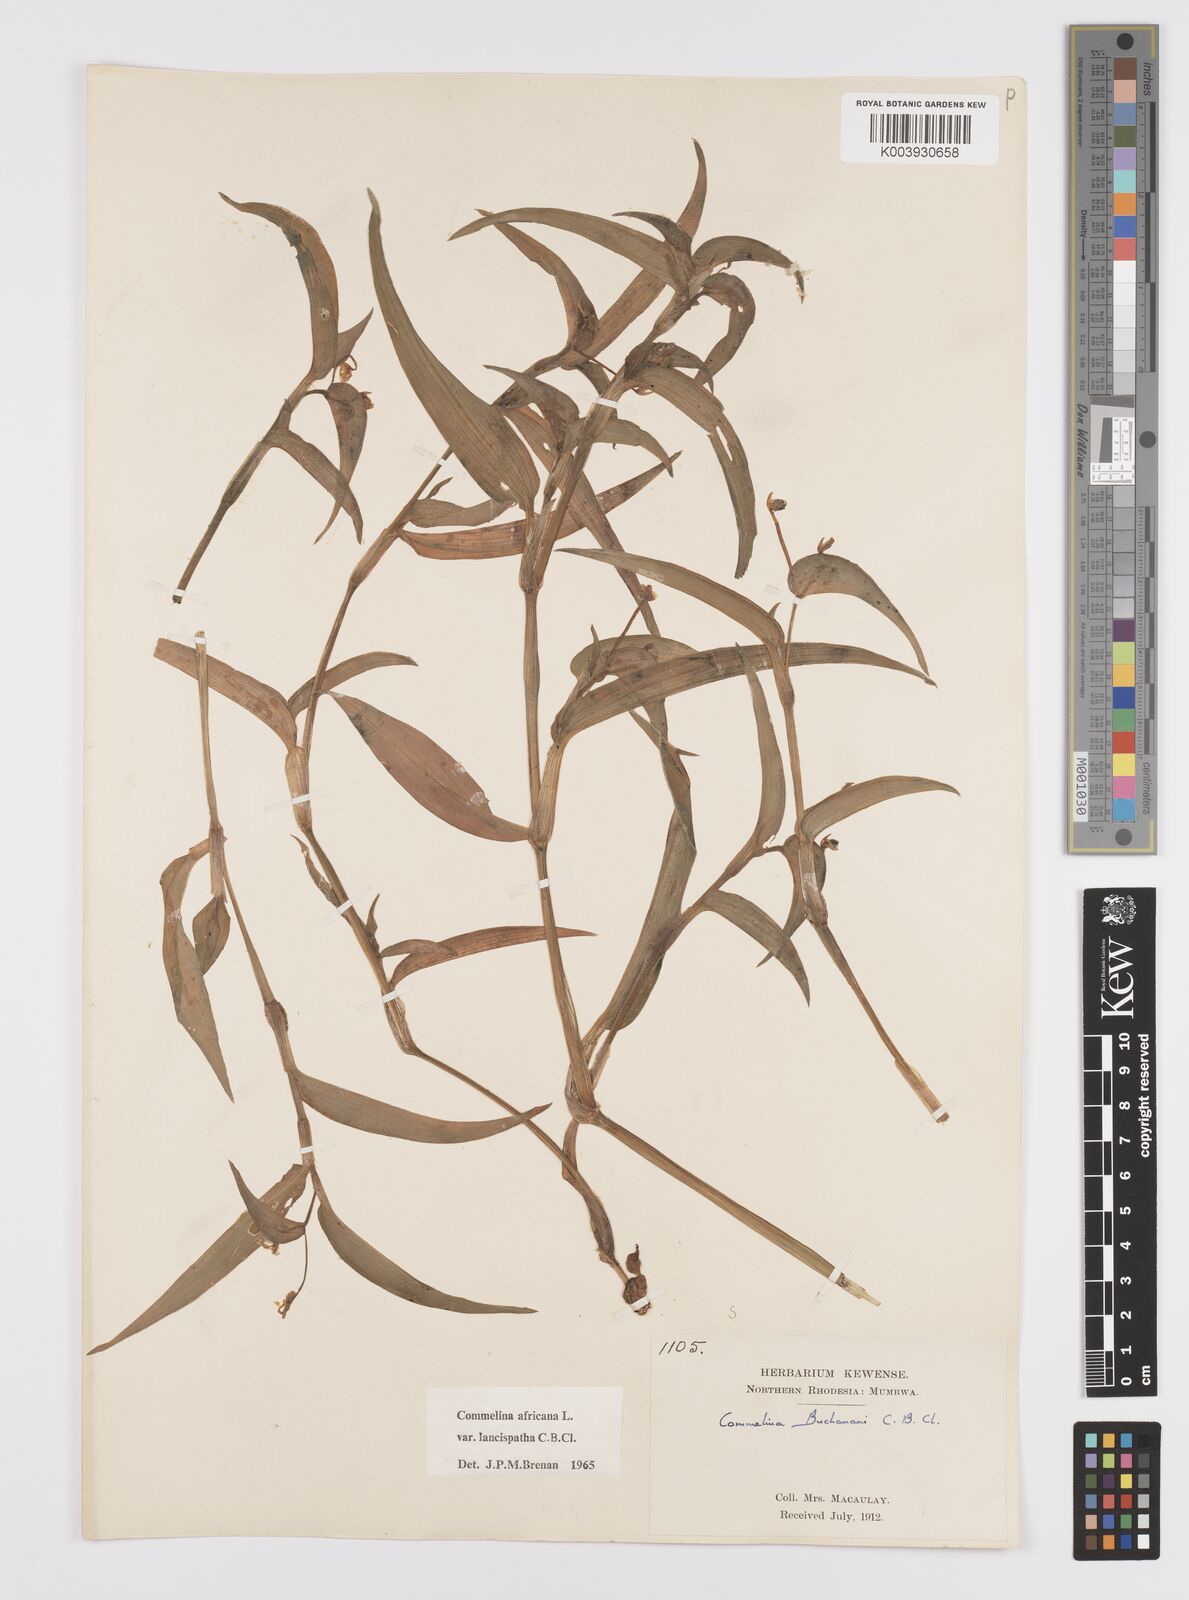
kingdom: Plantae
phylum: Tracheophyta
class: Liliopsida
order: Commelinales
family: Commelinaceae
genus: Commelina
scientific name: Commelina africana
